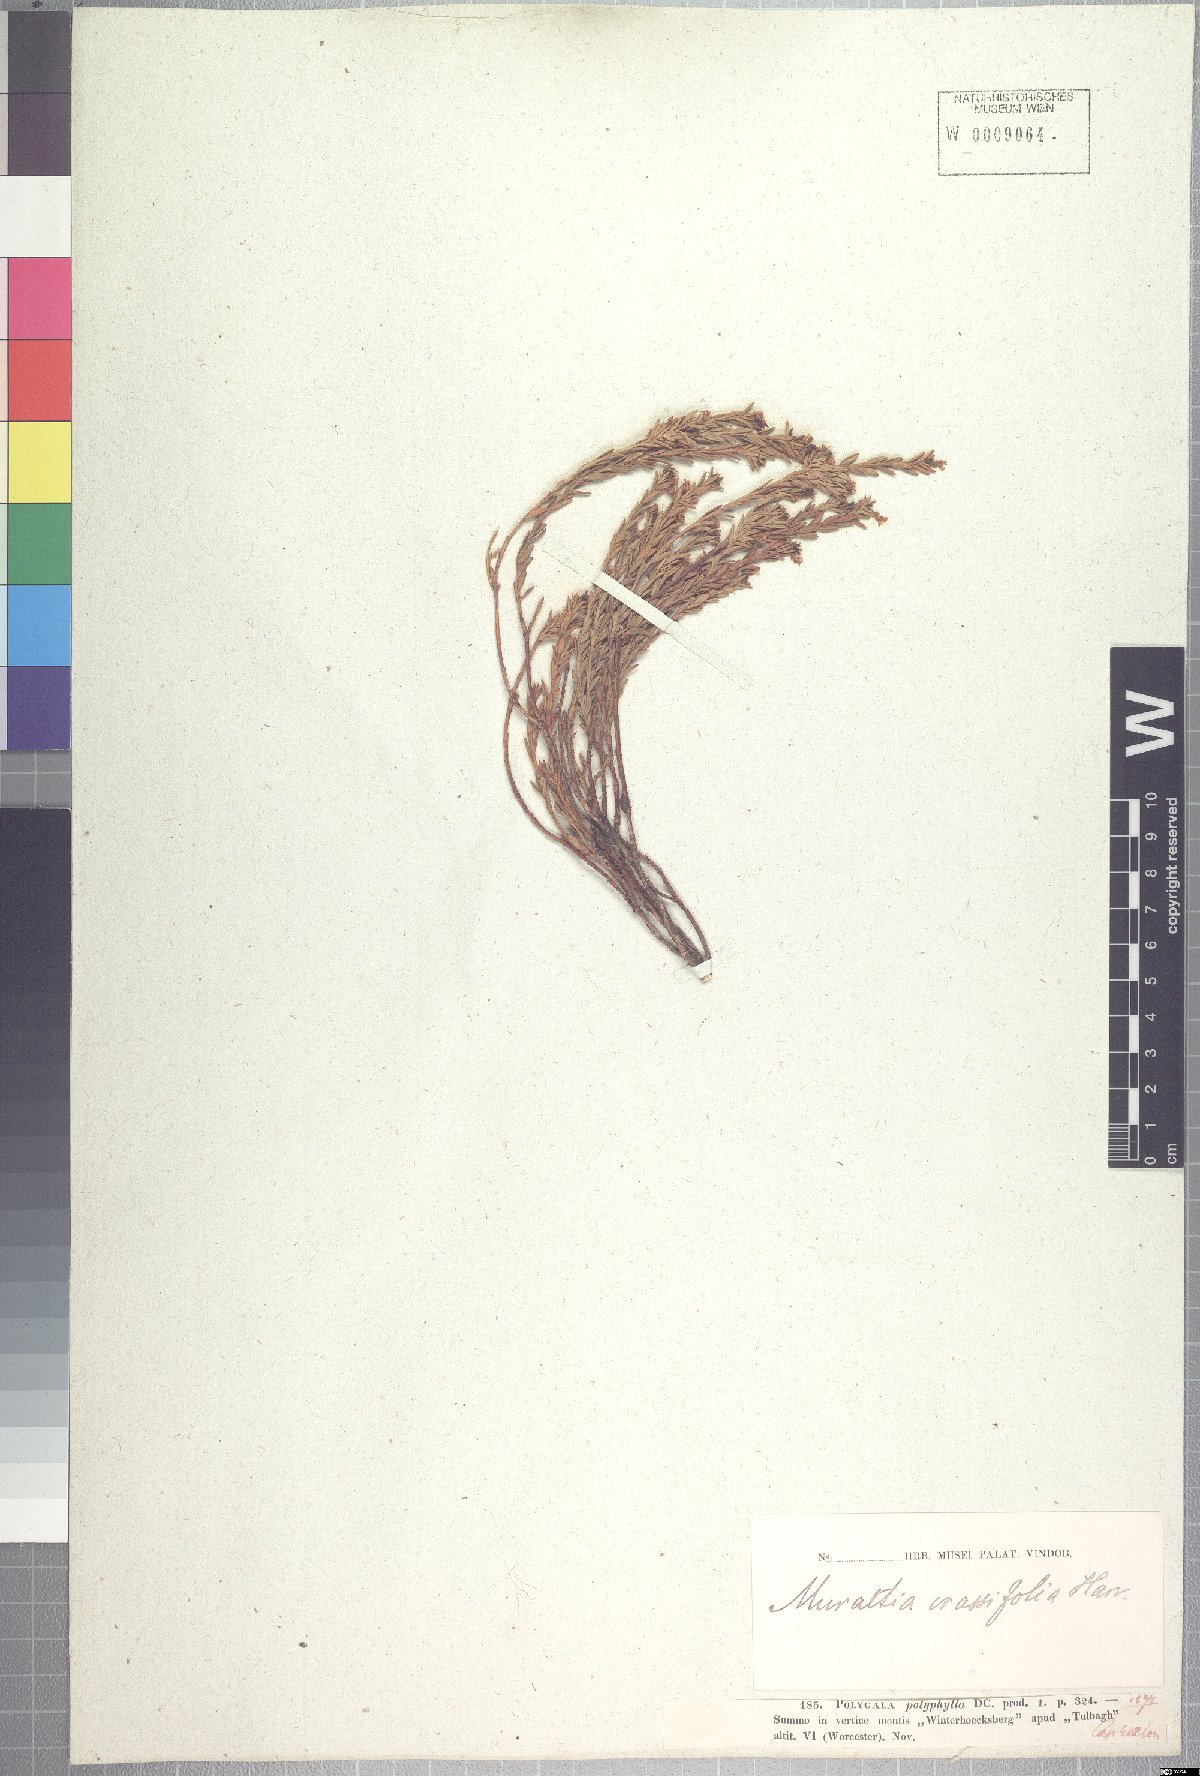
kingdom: Plantae
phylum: Tracheophyta
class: Magnoliopsida
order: Fabales
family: Polygalaceae
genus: Muraltia
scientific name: Muraltia crassifolia
